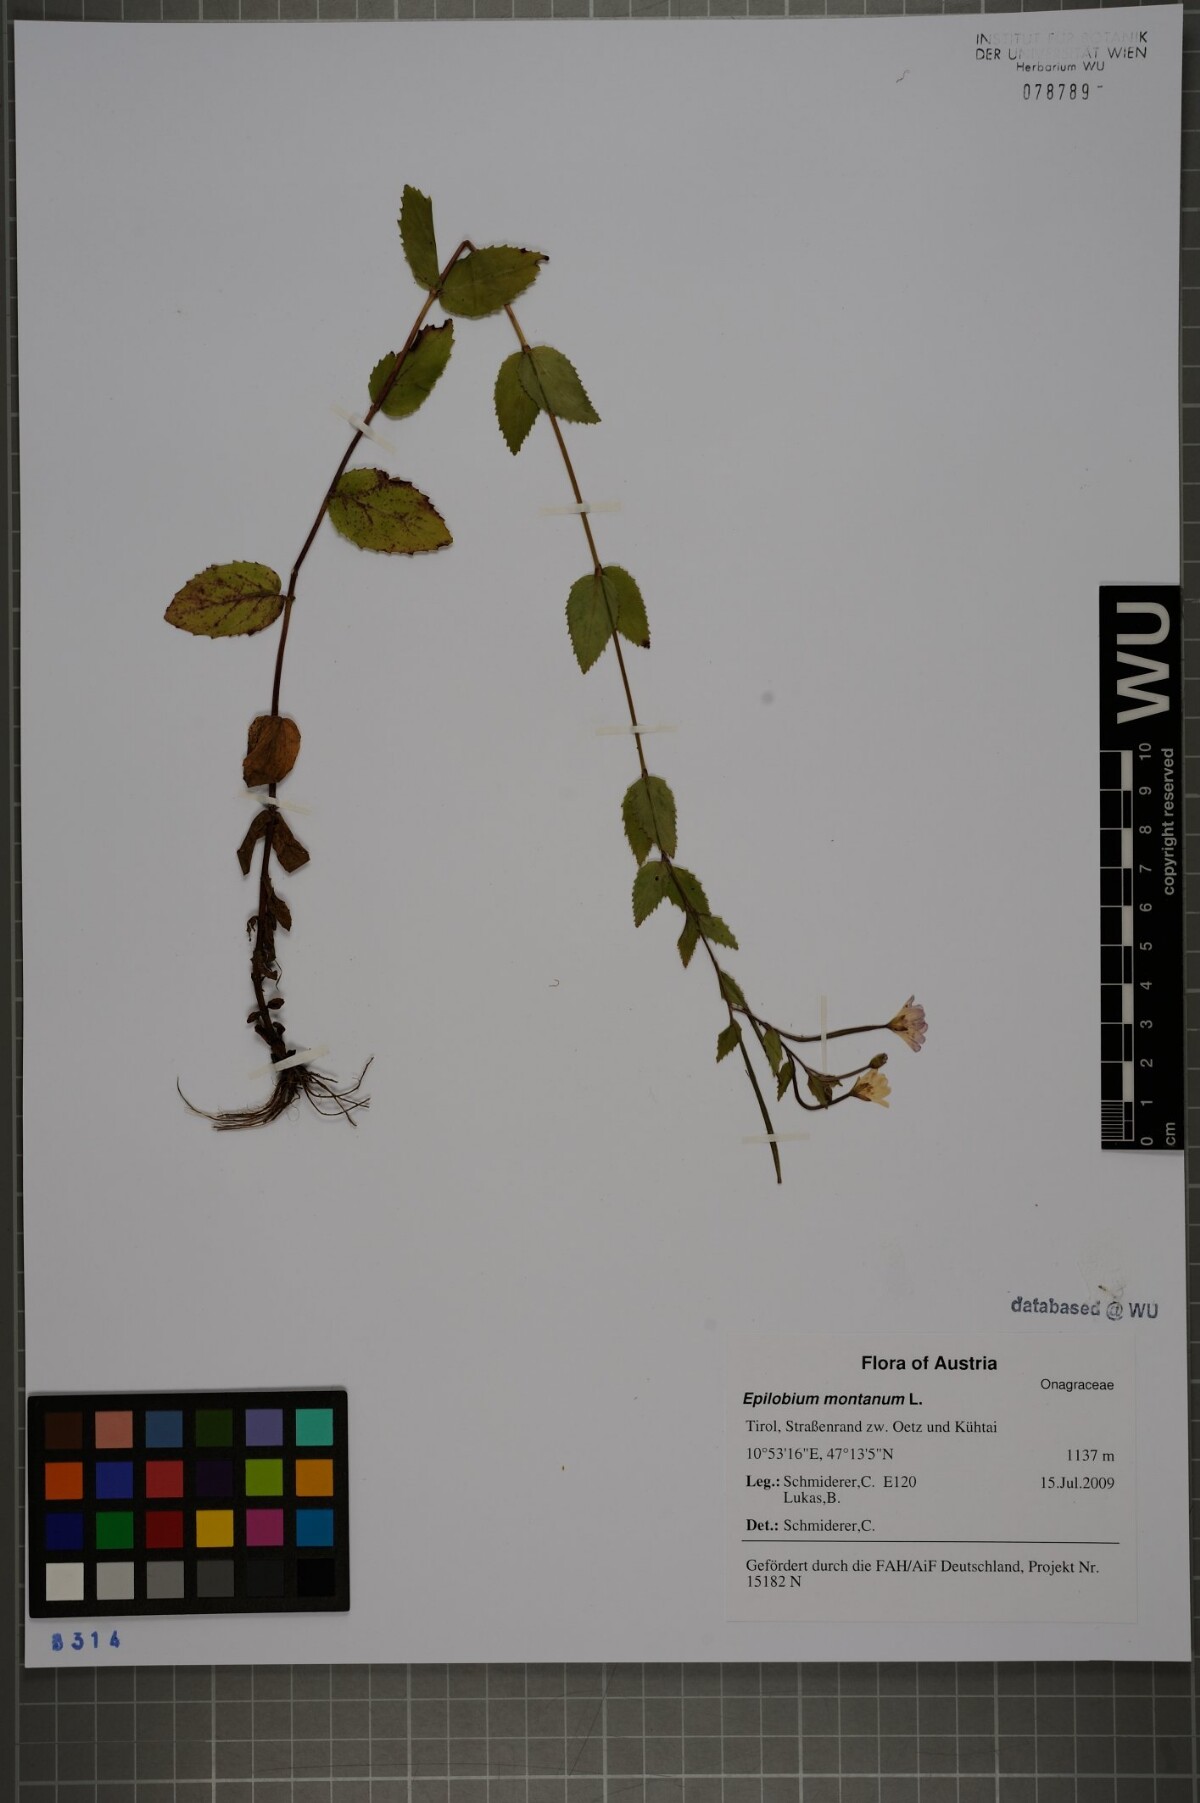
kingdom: Plantae
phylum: Tracheophyta
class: Magnoliopsida
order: Myrtales
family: Onagraceae
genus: Epilobium
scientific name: Epilobium montanum
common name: Broad-leaved willowherb
